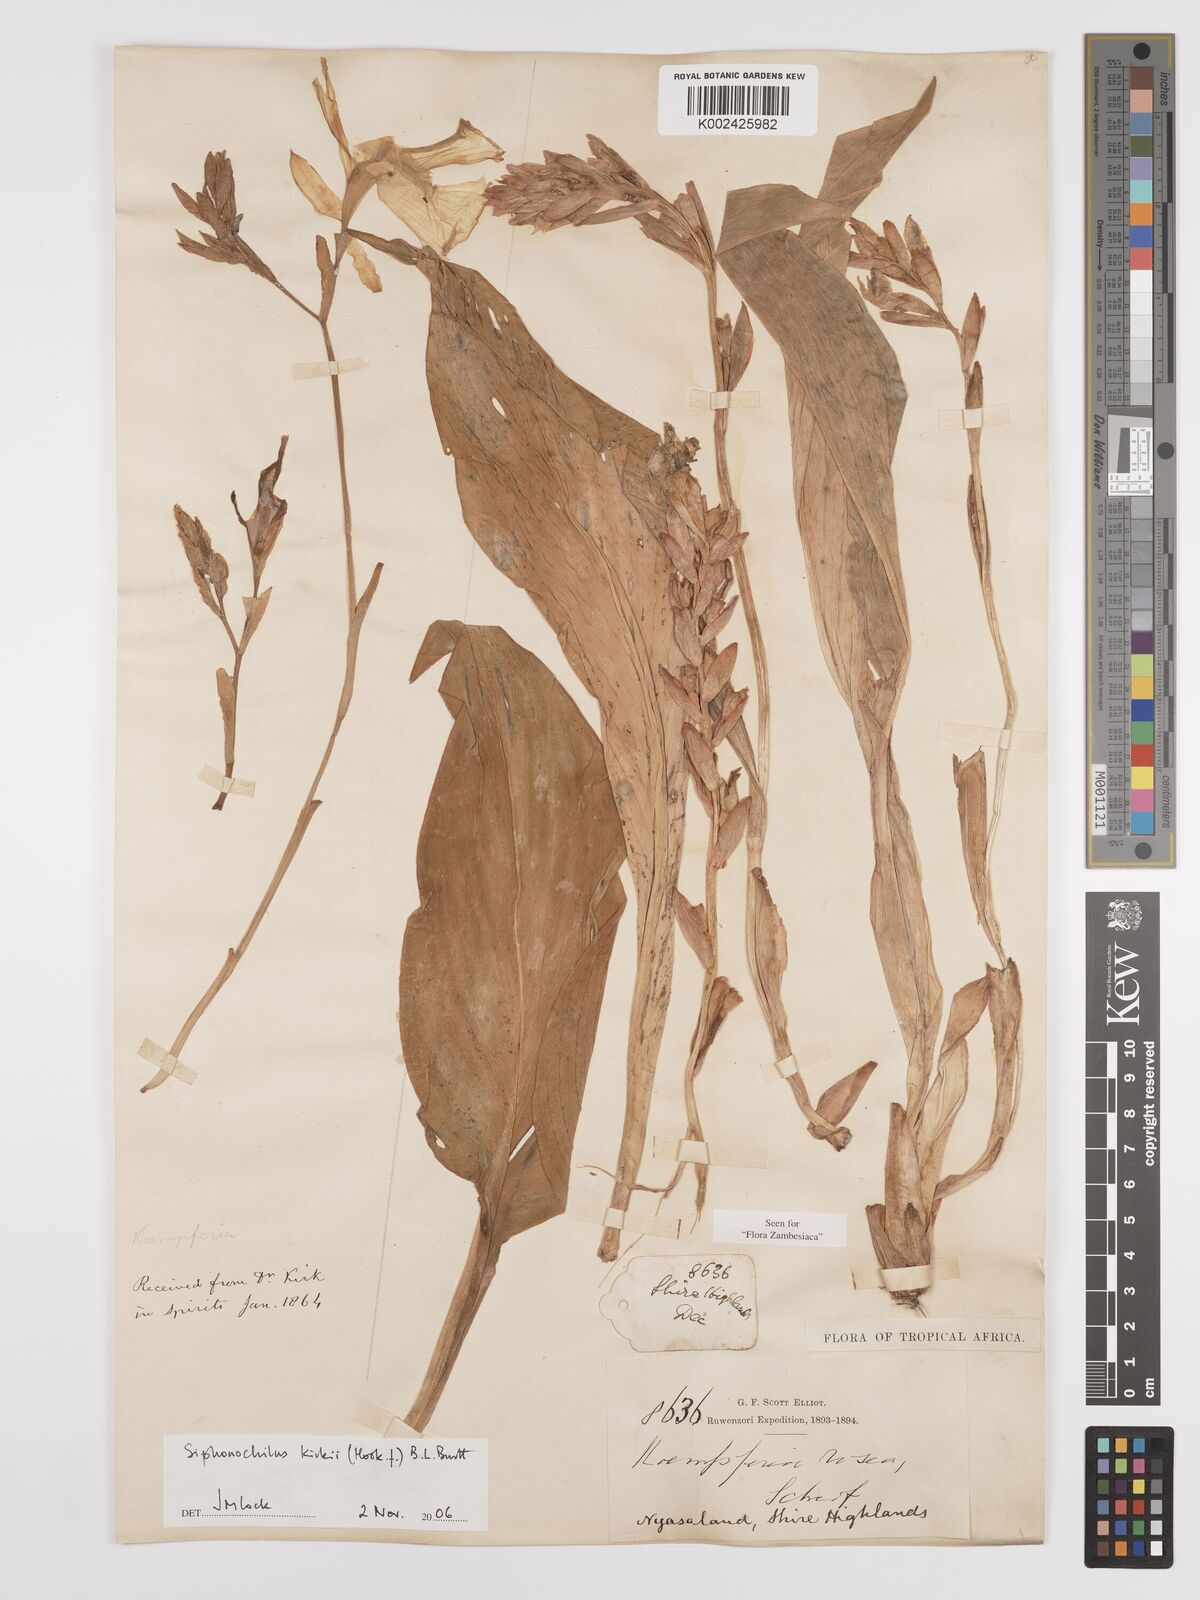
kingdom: Plantae
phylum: Tracheophyta
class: Liliopsida
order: Zingiberales
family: Zingiberaceae
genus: Siphonochilus
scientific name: Siphonochilus kirkii
